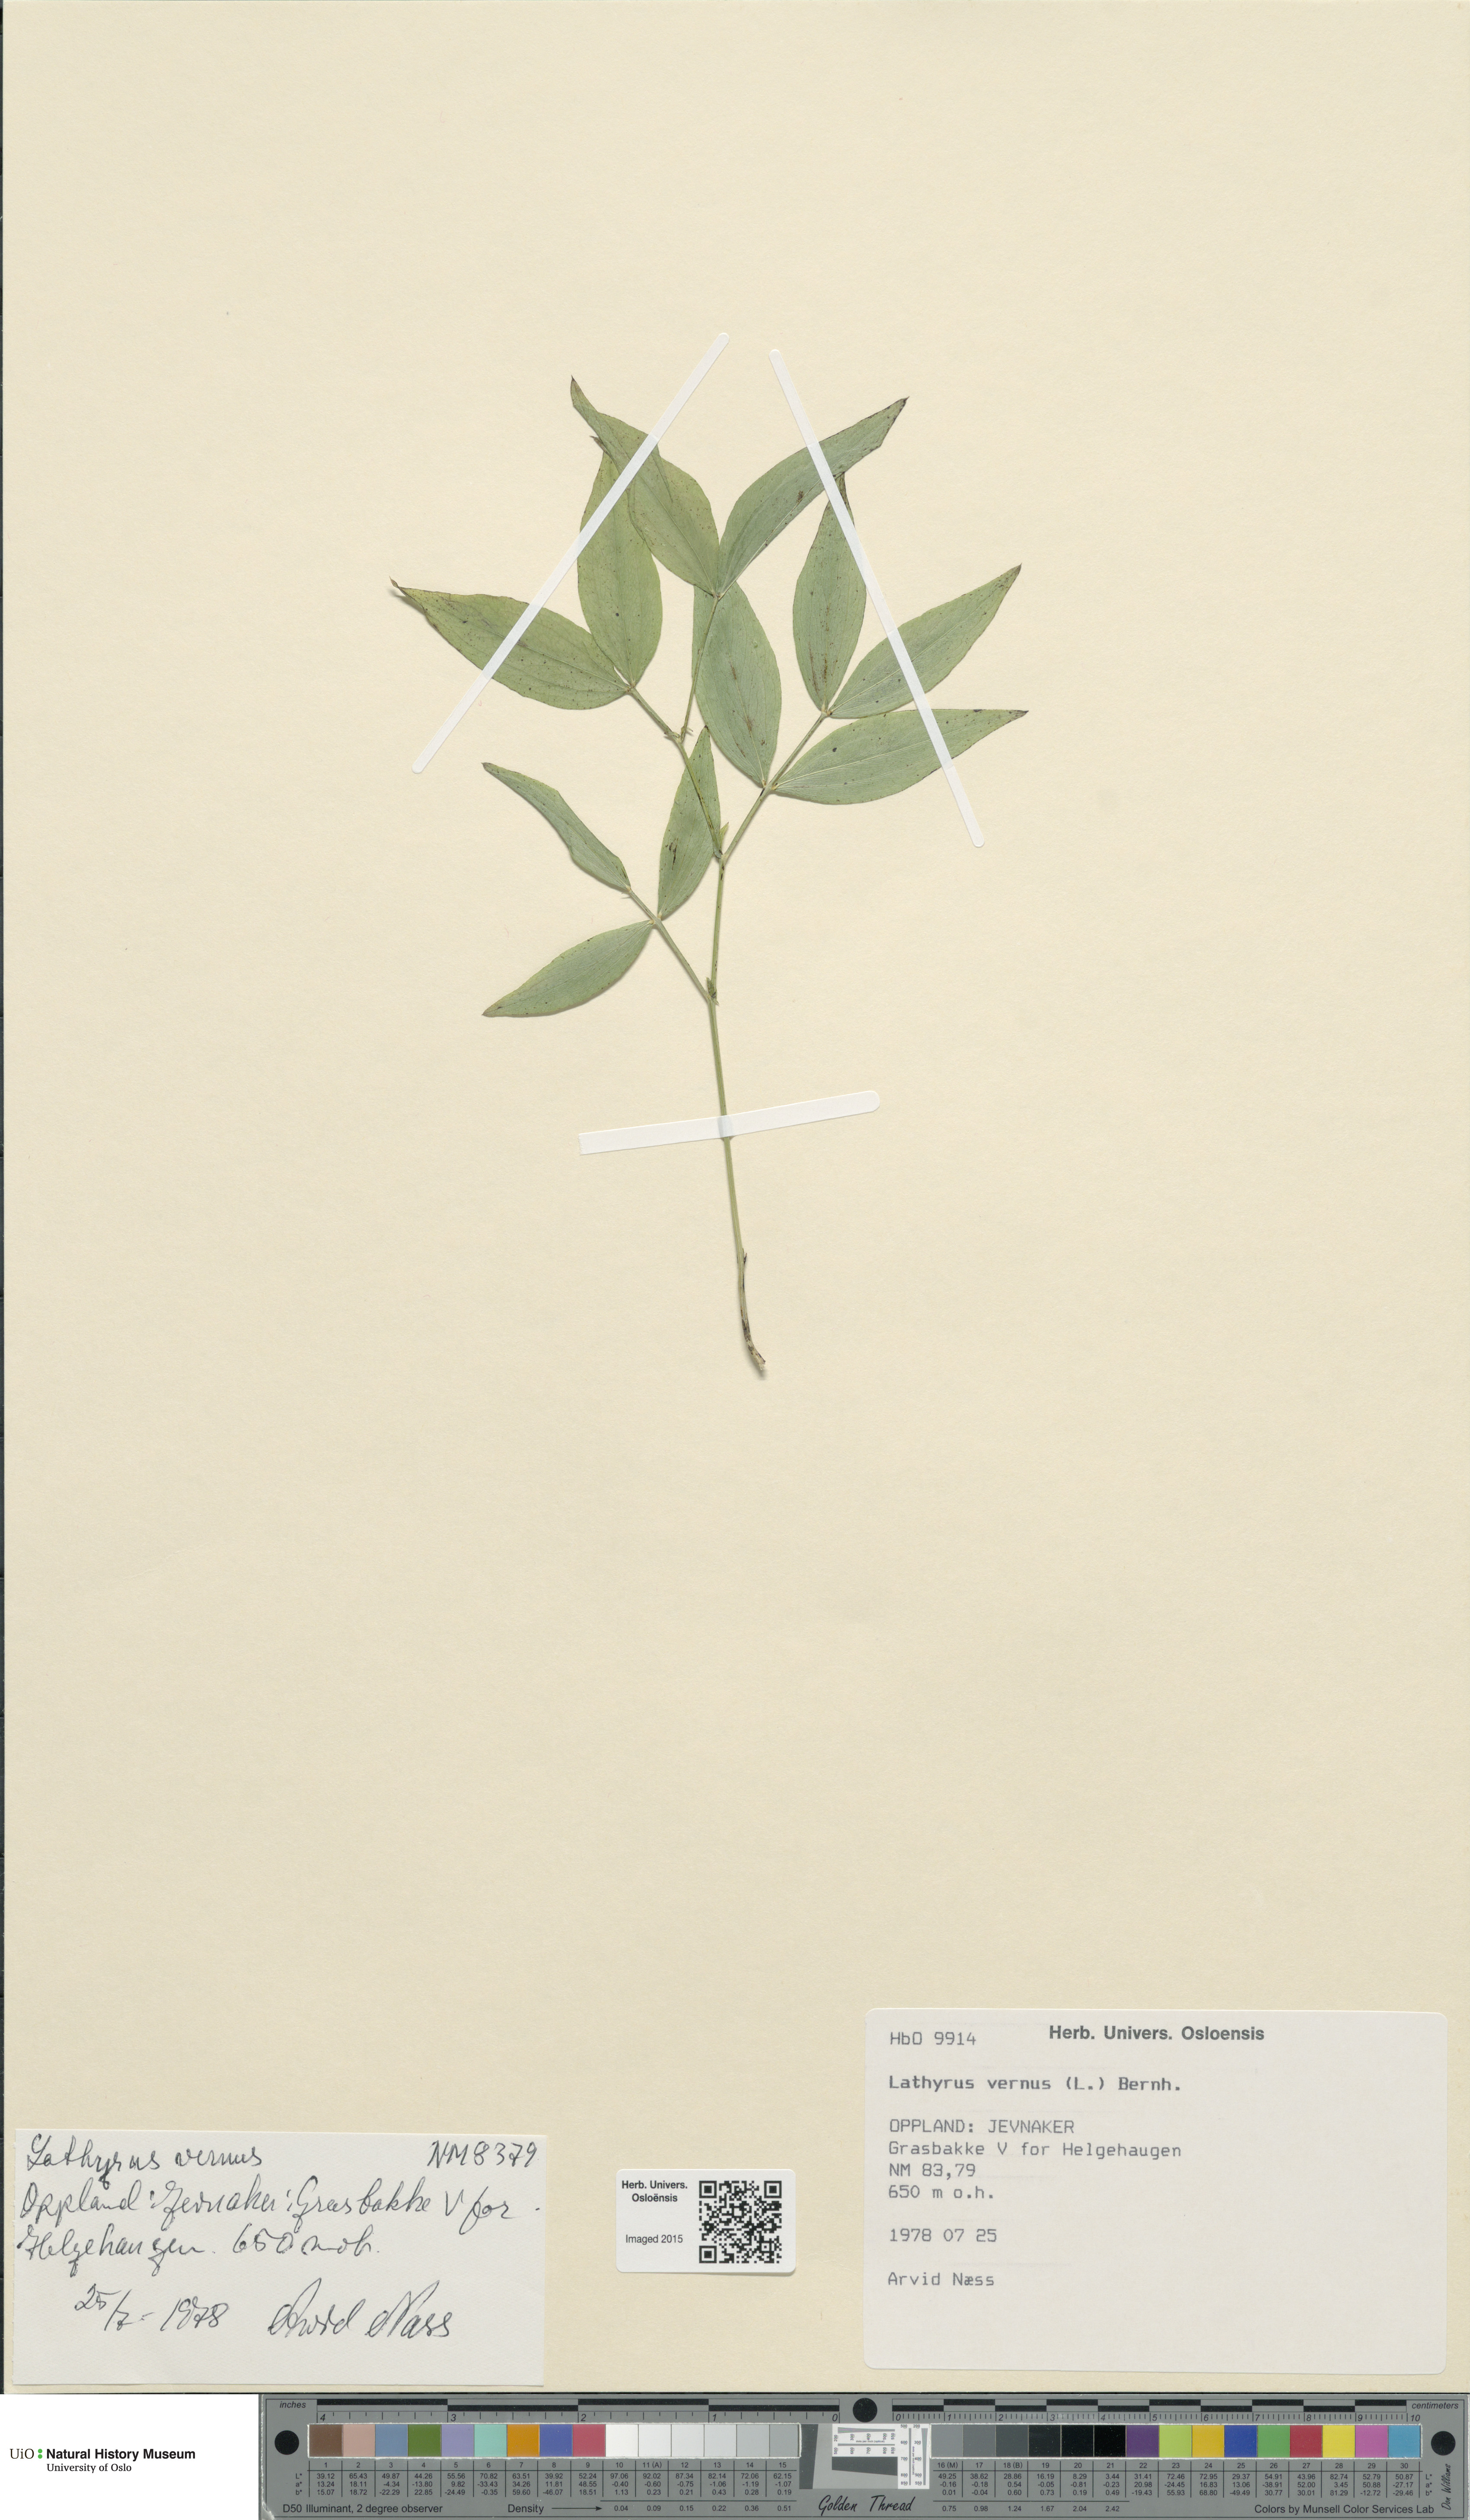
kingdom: Plantae
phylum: Tracheophyta
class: Magnoliopsida
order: Fabales
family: Fabaceae
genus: Lathyrus
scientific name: Lathyrus vernus
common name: Spring pea
